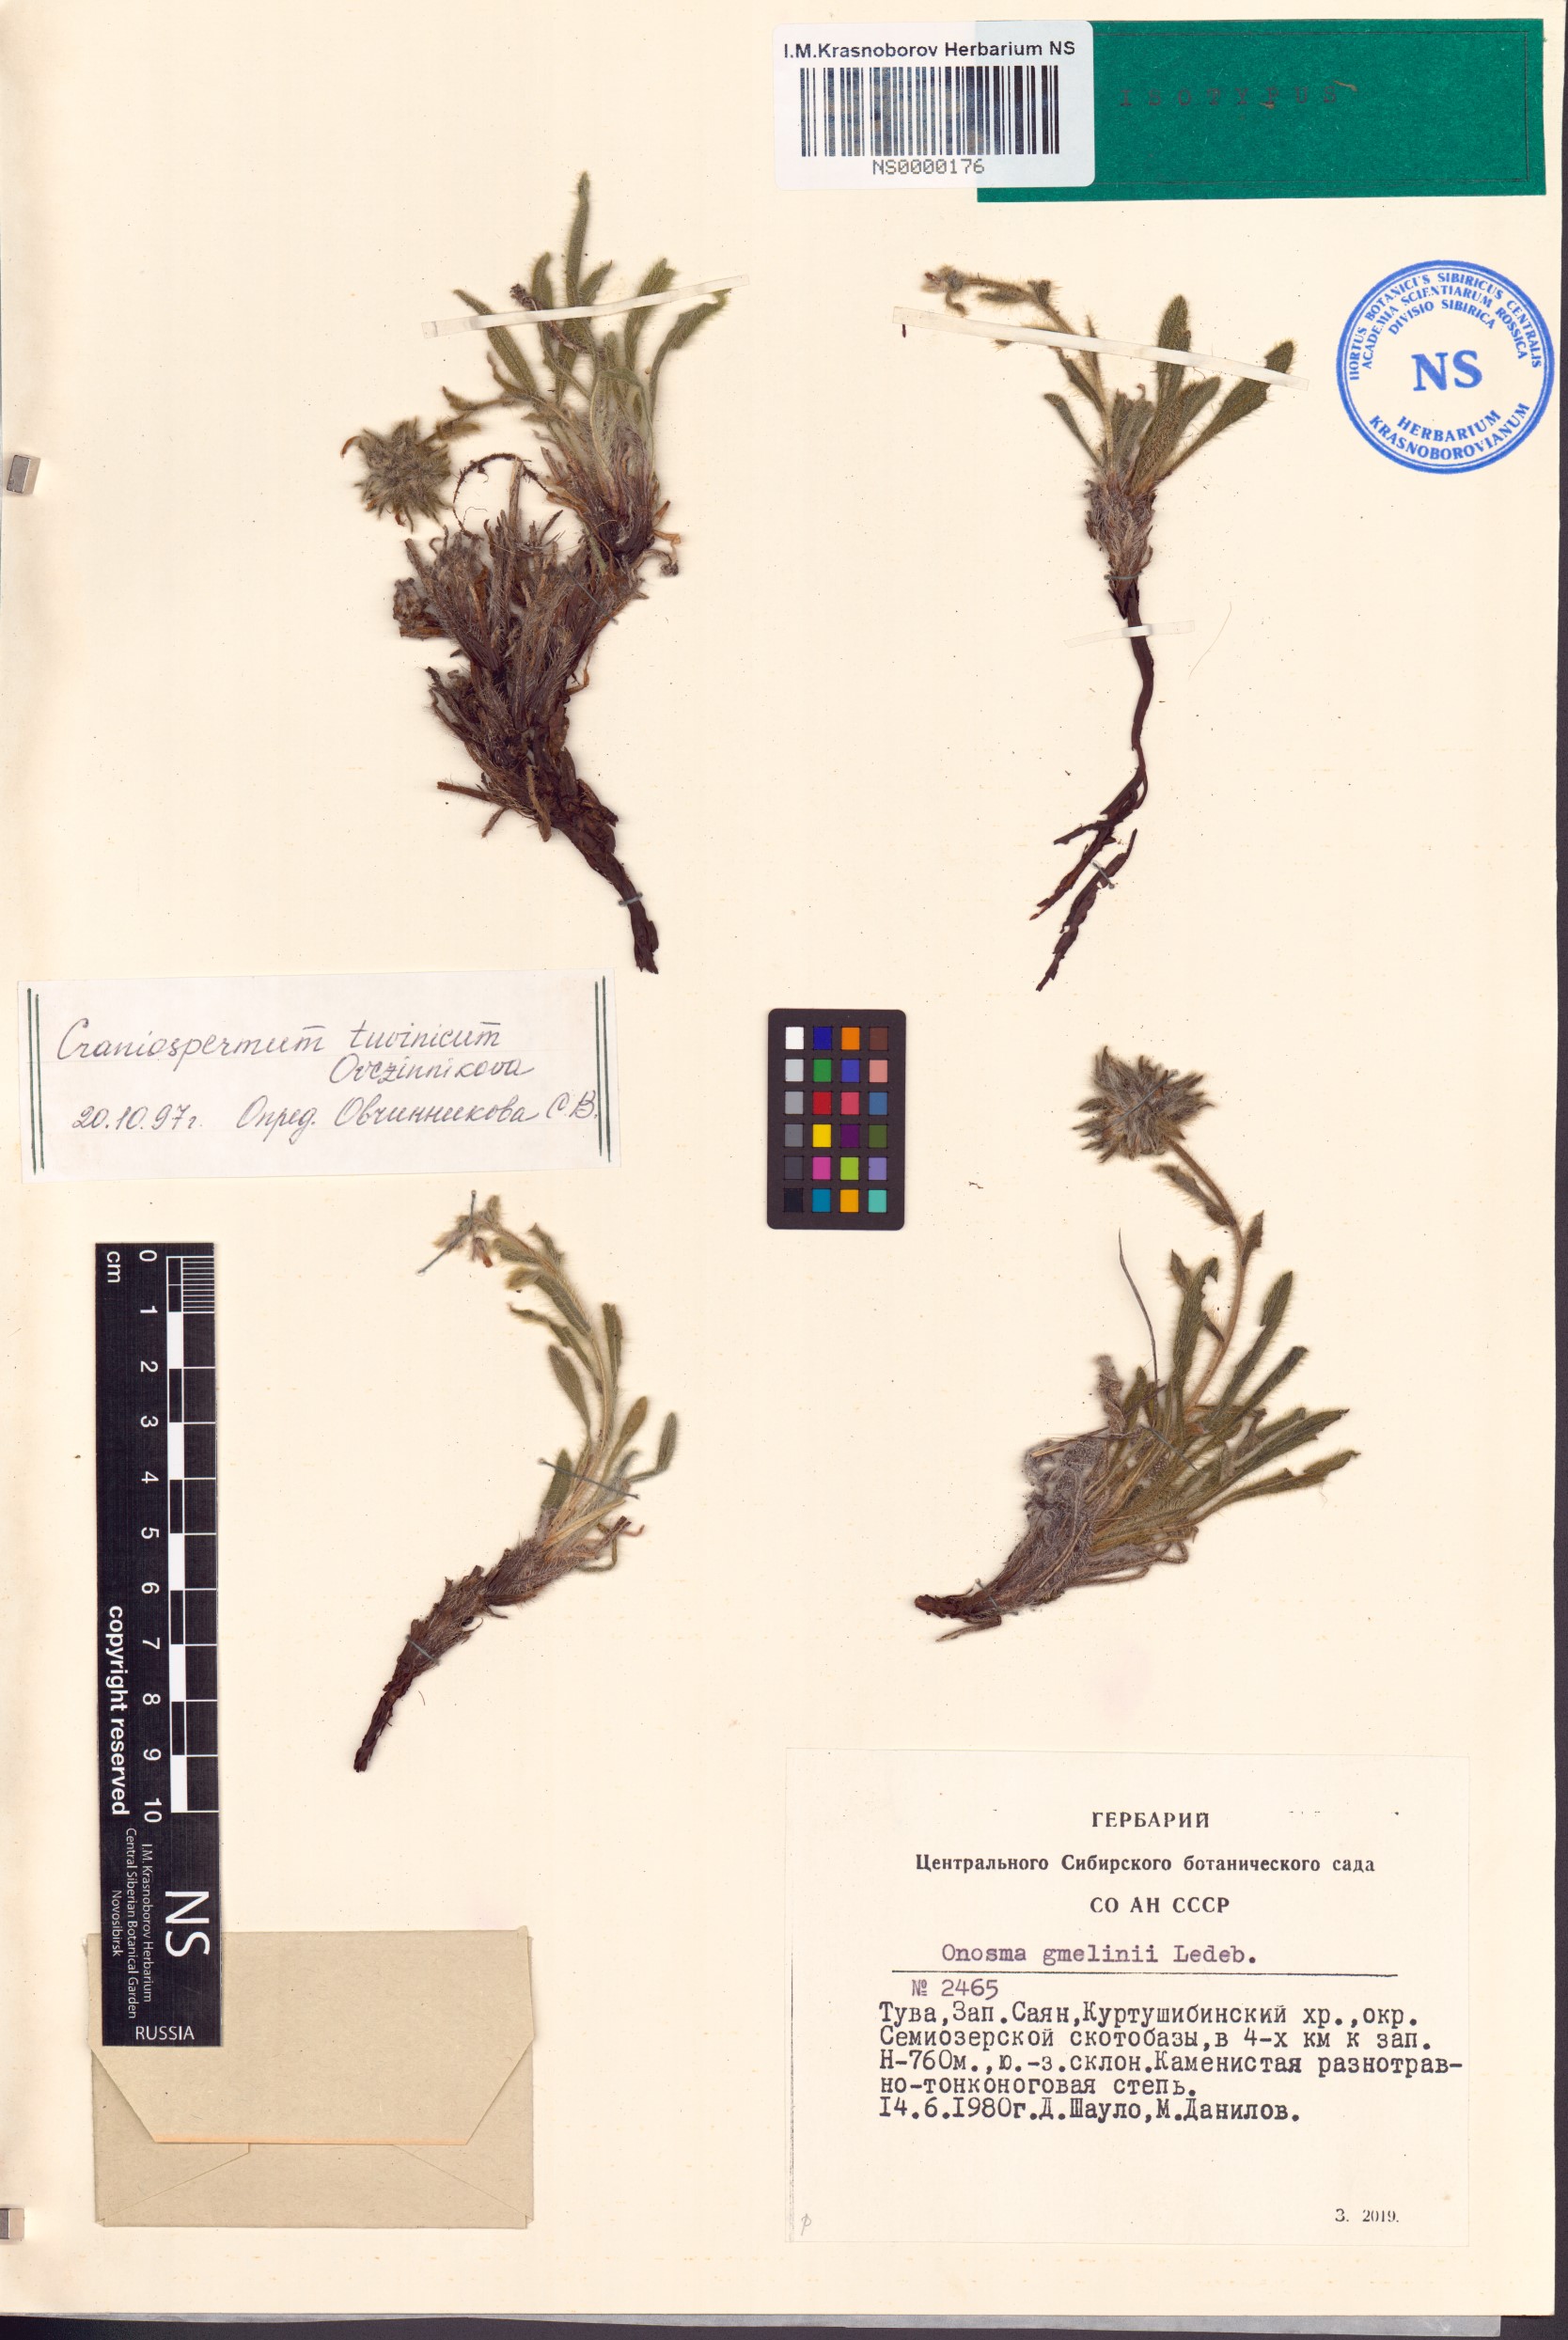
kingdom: Plantae
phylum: Tracheophyta
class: Magnoliopsida
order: Boraginales
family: Boraginaceae
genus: Craniospermum
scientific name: Craniospermum tuvinicum
